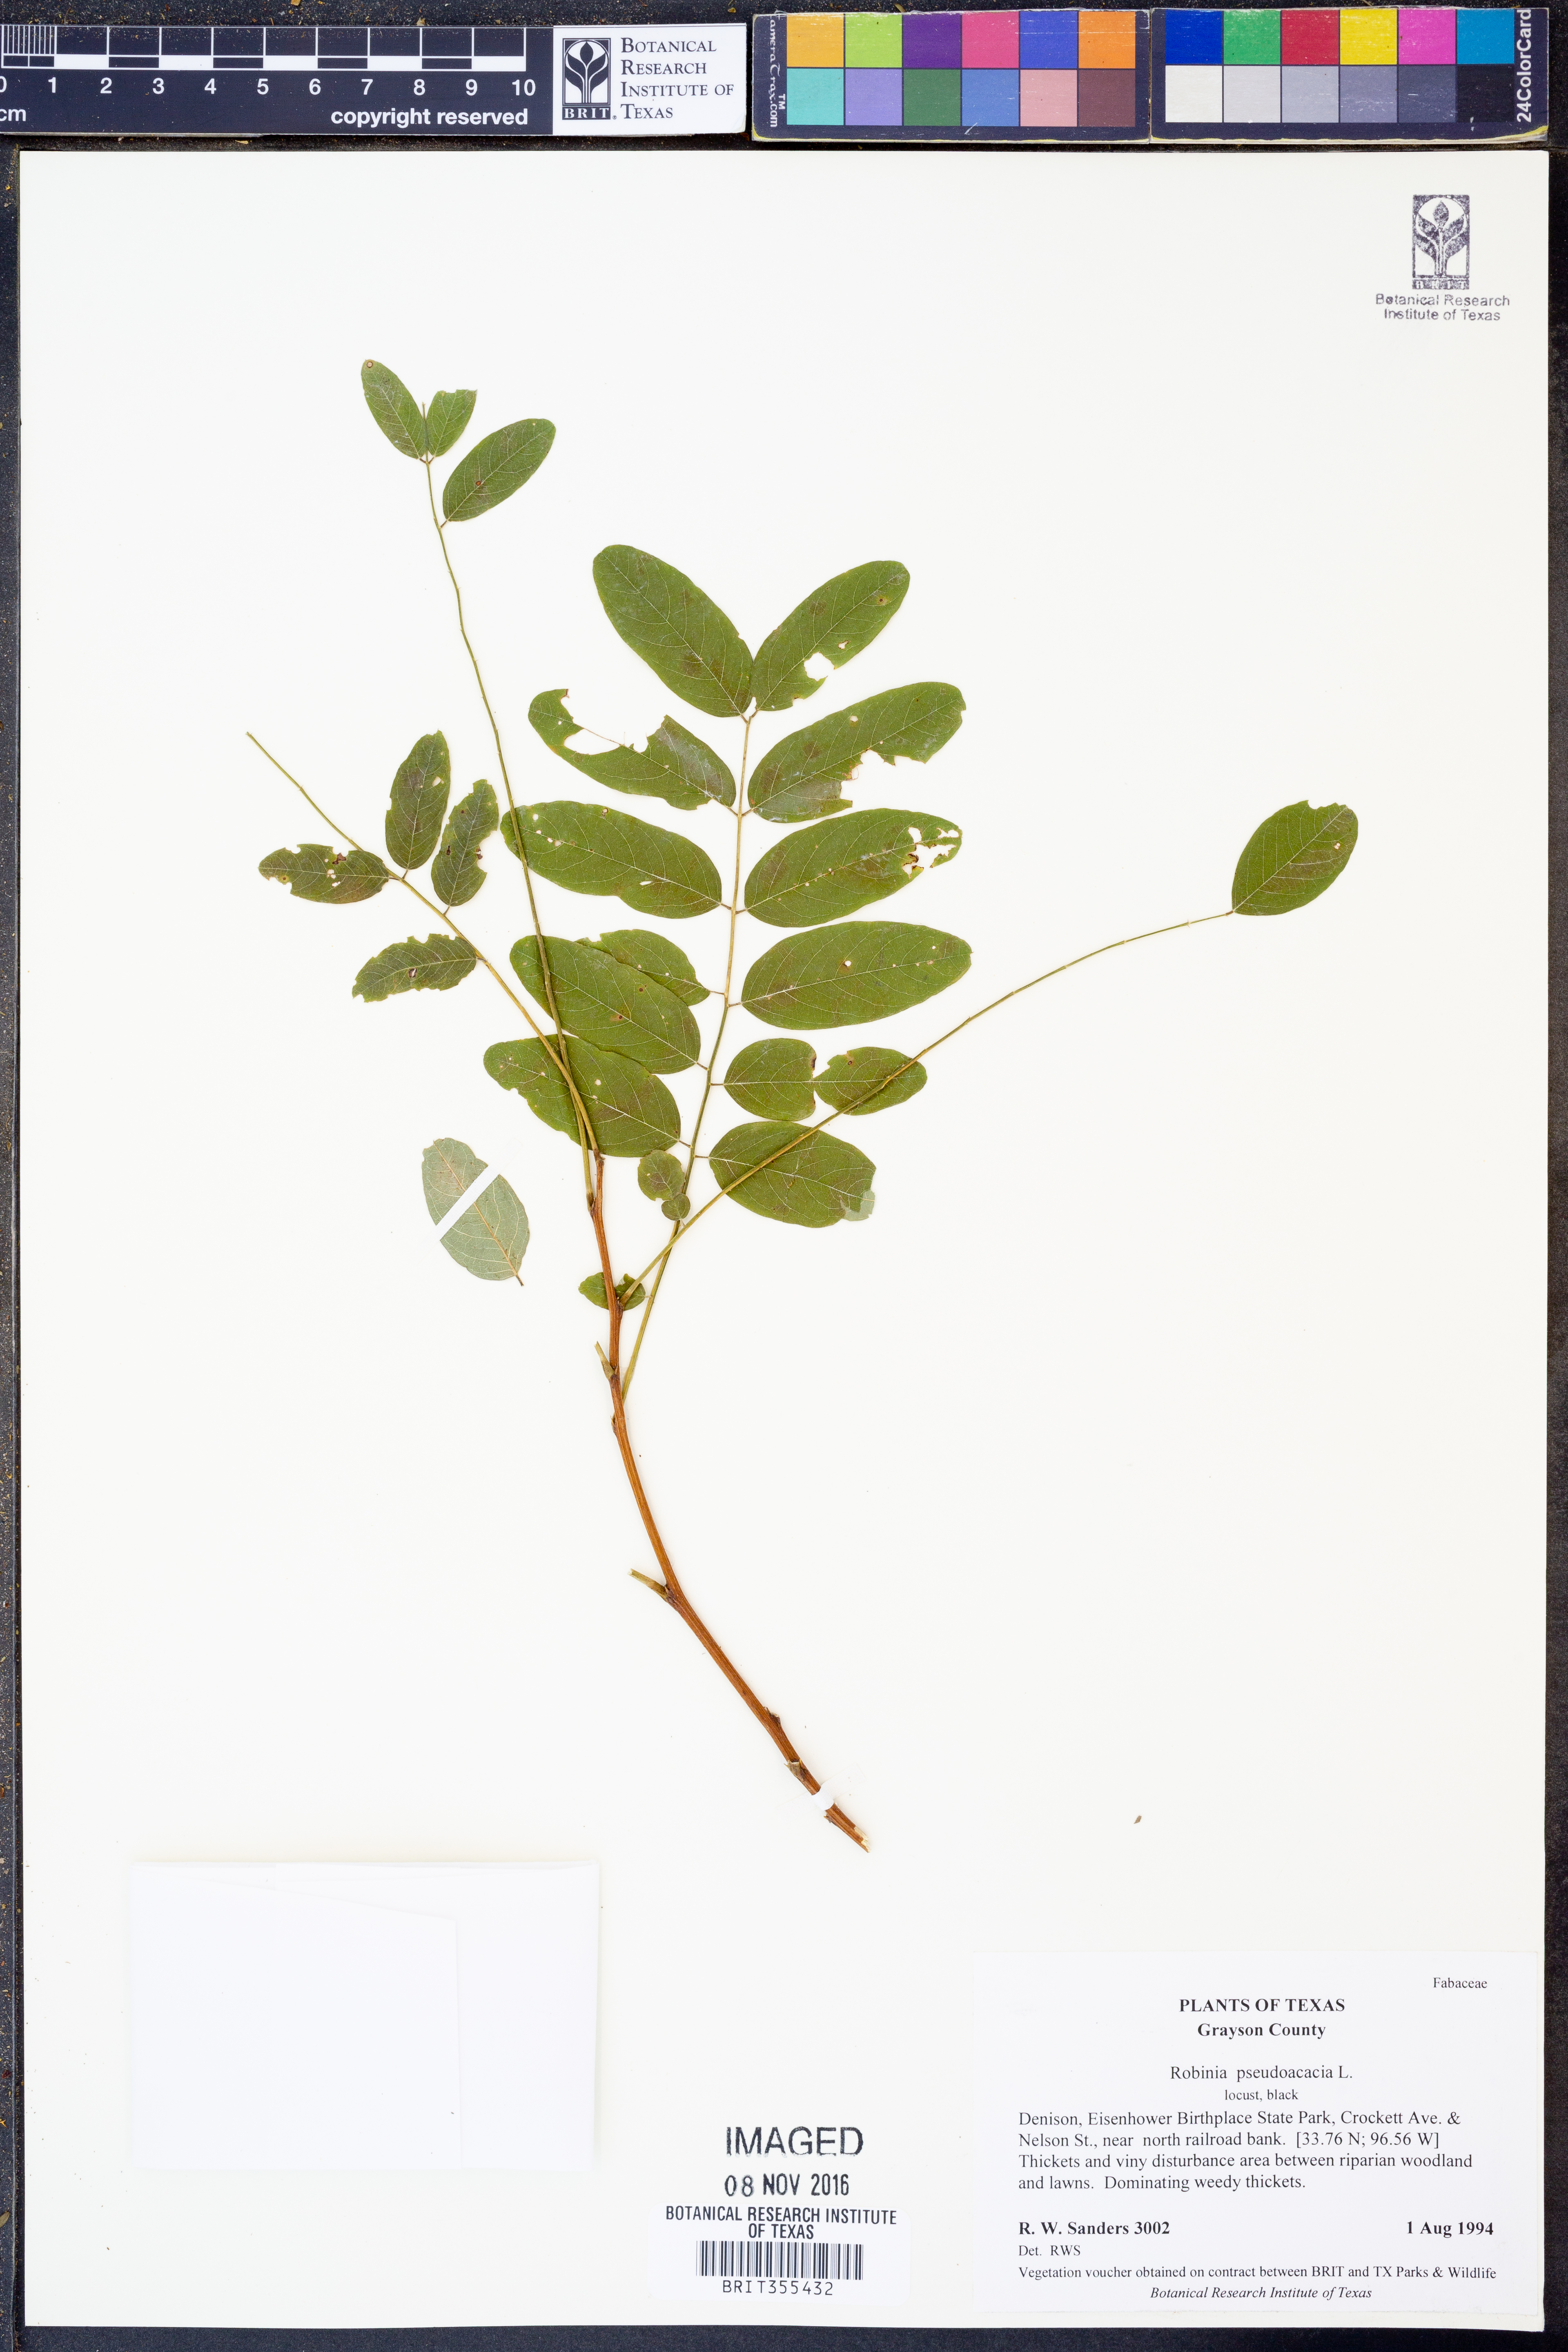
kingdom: Plantae
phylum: Tracheophyta
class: Magnoliopsida
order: Fabales
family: Fabaceae
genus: Robinia
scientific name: Robinia pseudoacacia
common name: Black locust
